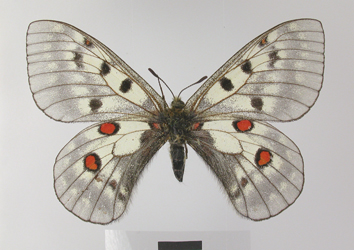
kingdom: Animalia
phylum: Arthropoda
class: Insecta
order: Lepidoptera
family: Papilionidae
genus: Parnassius
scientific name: Parnassius bremeri
